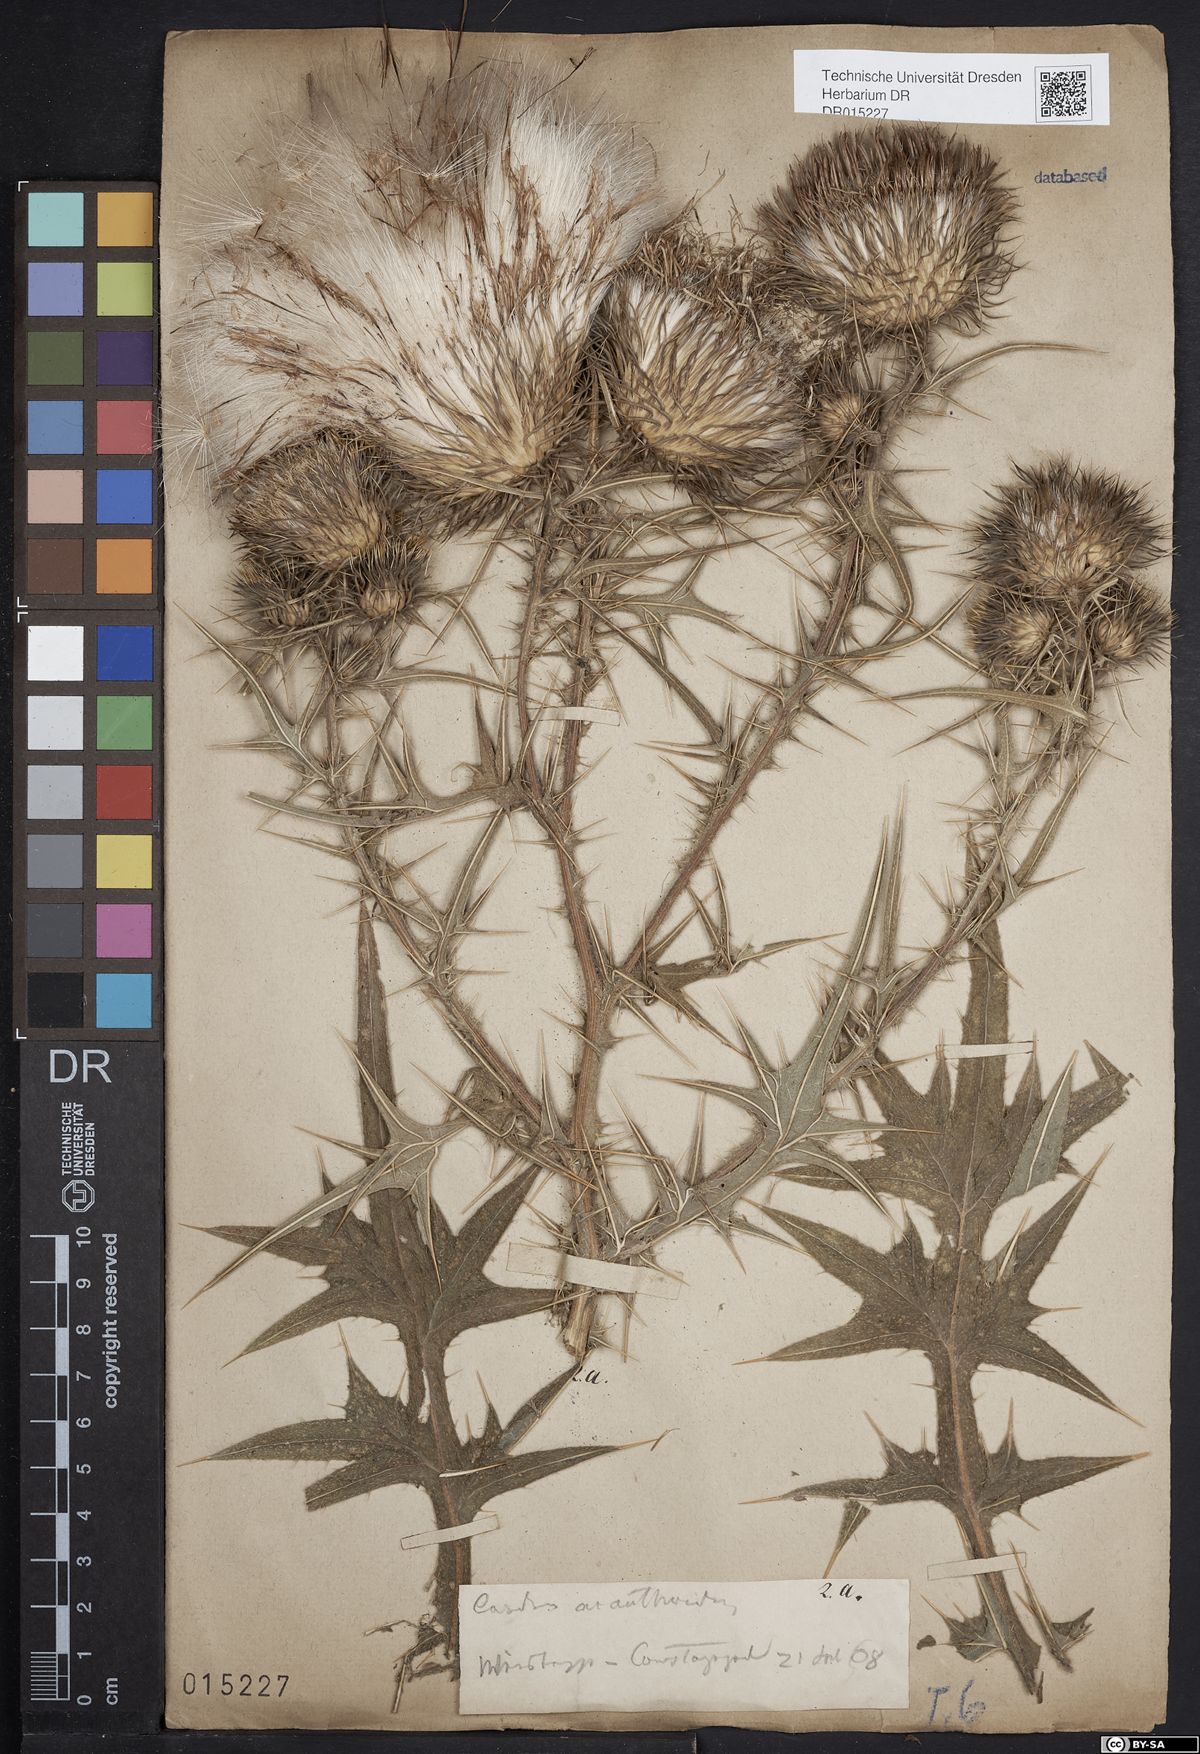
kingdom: Plantae
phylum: Tracheophyta
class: Magnoliopsida
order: Asterales
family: Asteraceae
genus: Cirsium
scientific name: Cirsium vulgare
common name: Bull thistle
